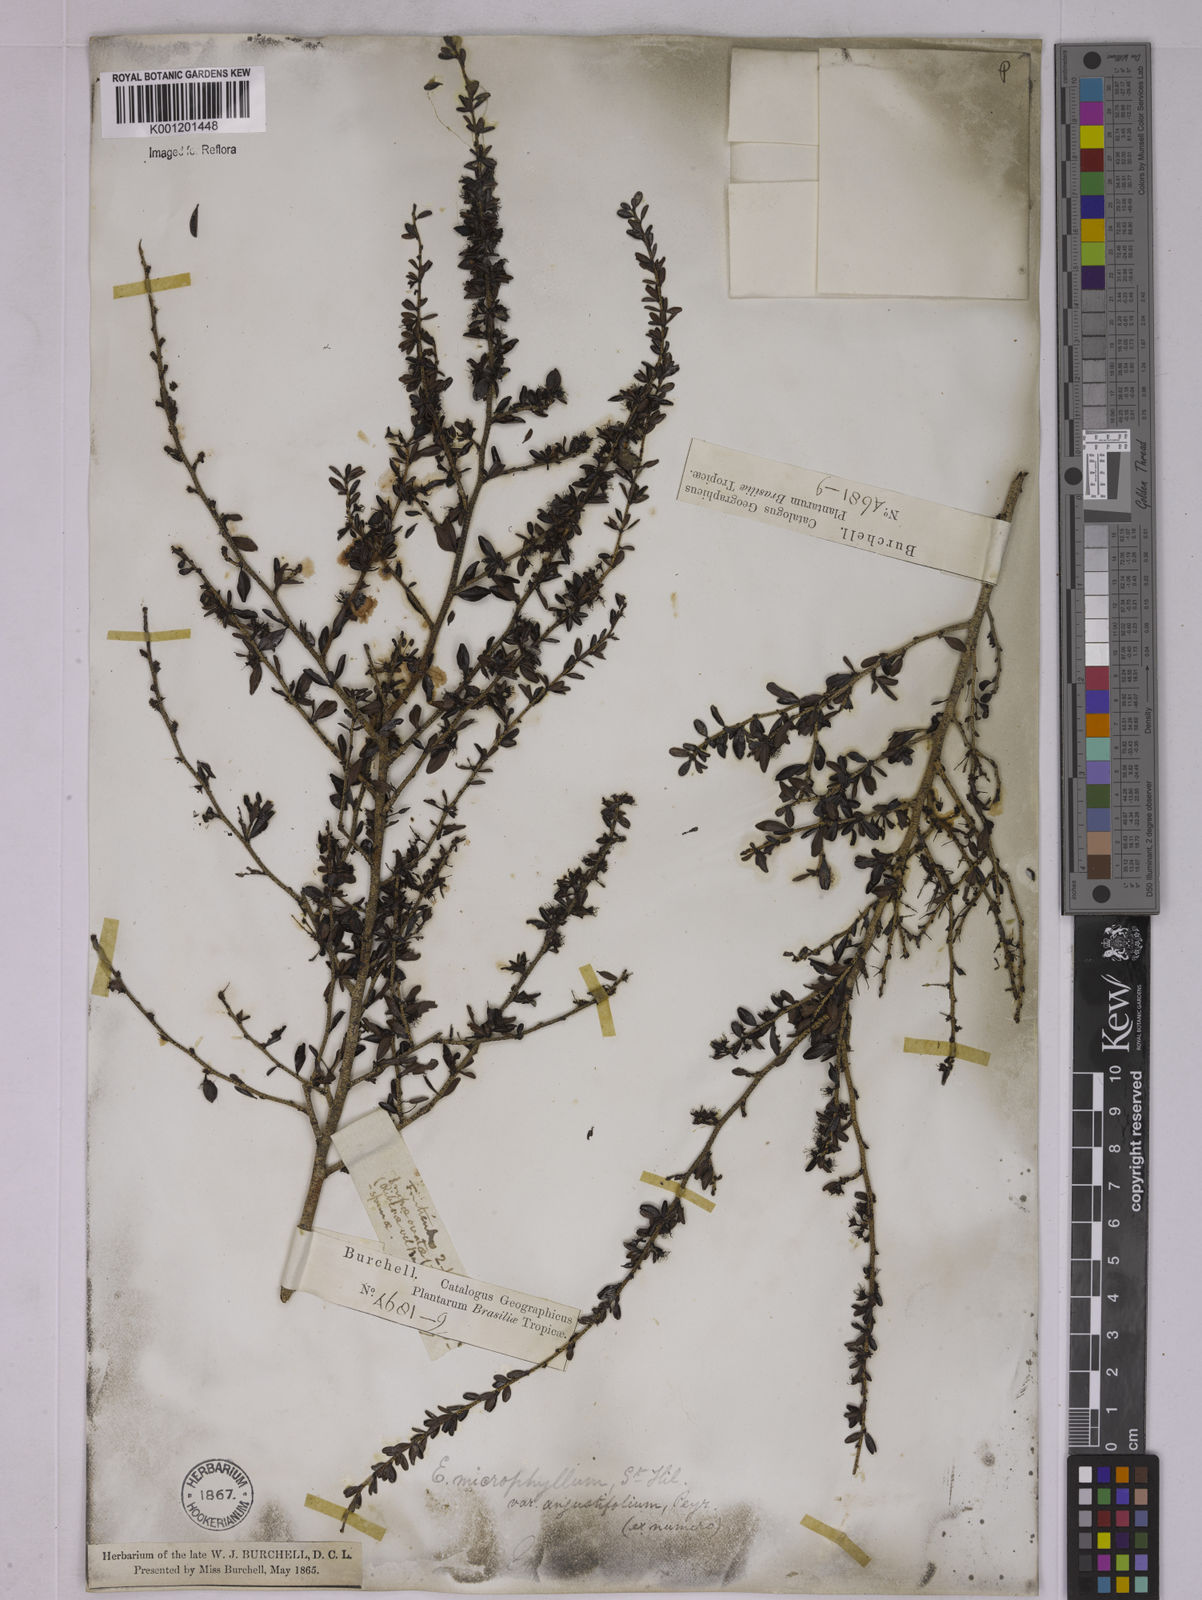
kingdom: Plantae
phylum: Tracheophyta
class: Magnoliopsida
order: Malpighiales
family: Erythroxylaceae
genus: Erythroxylum
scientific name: Erythroxylum microphyllum
